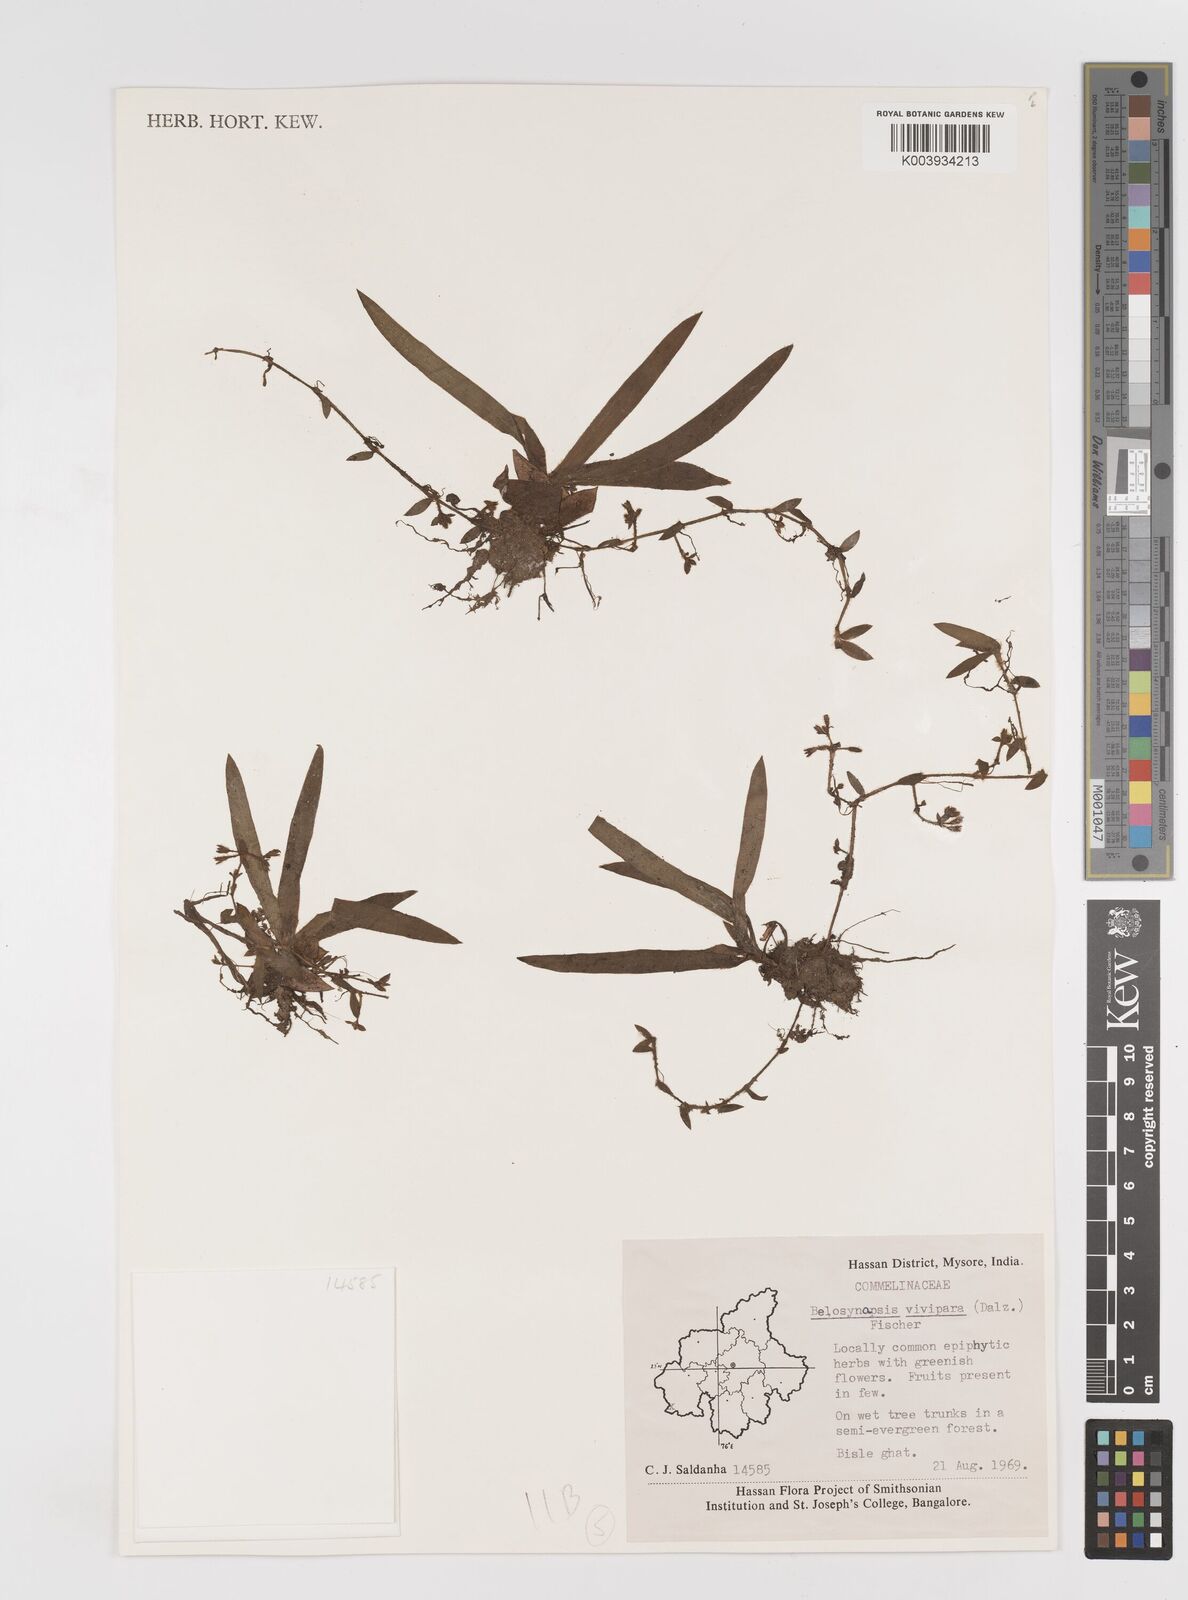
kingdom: Plantae
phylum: Tracheophyta
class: Liliopsida
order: Commelinales
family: Commelinaceae
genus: Cyanotis
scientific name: Cyanotis vivipara
